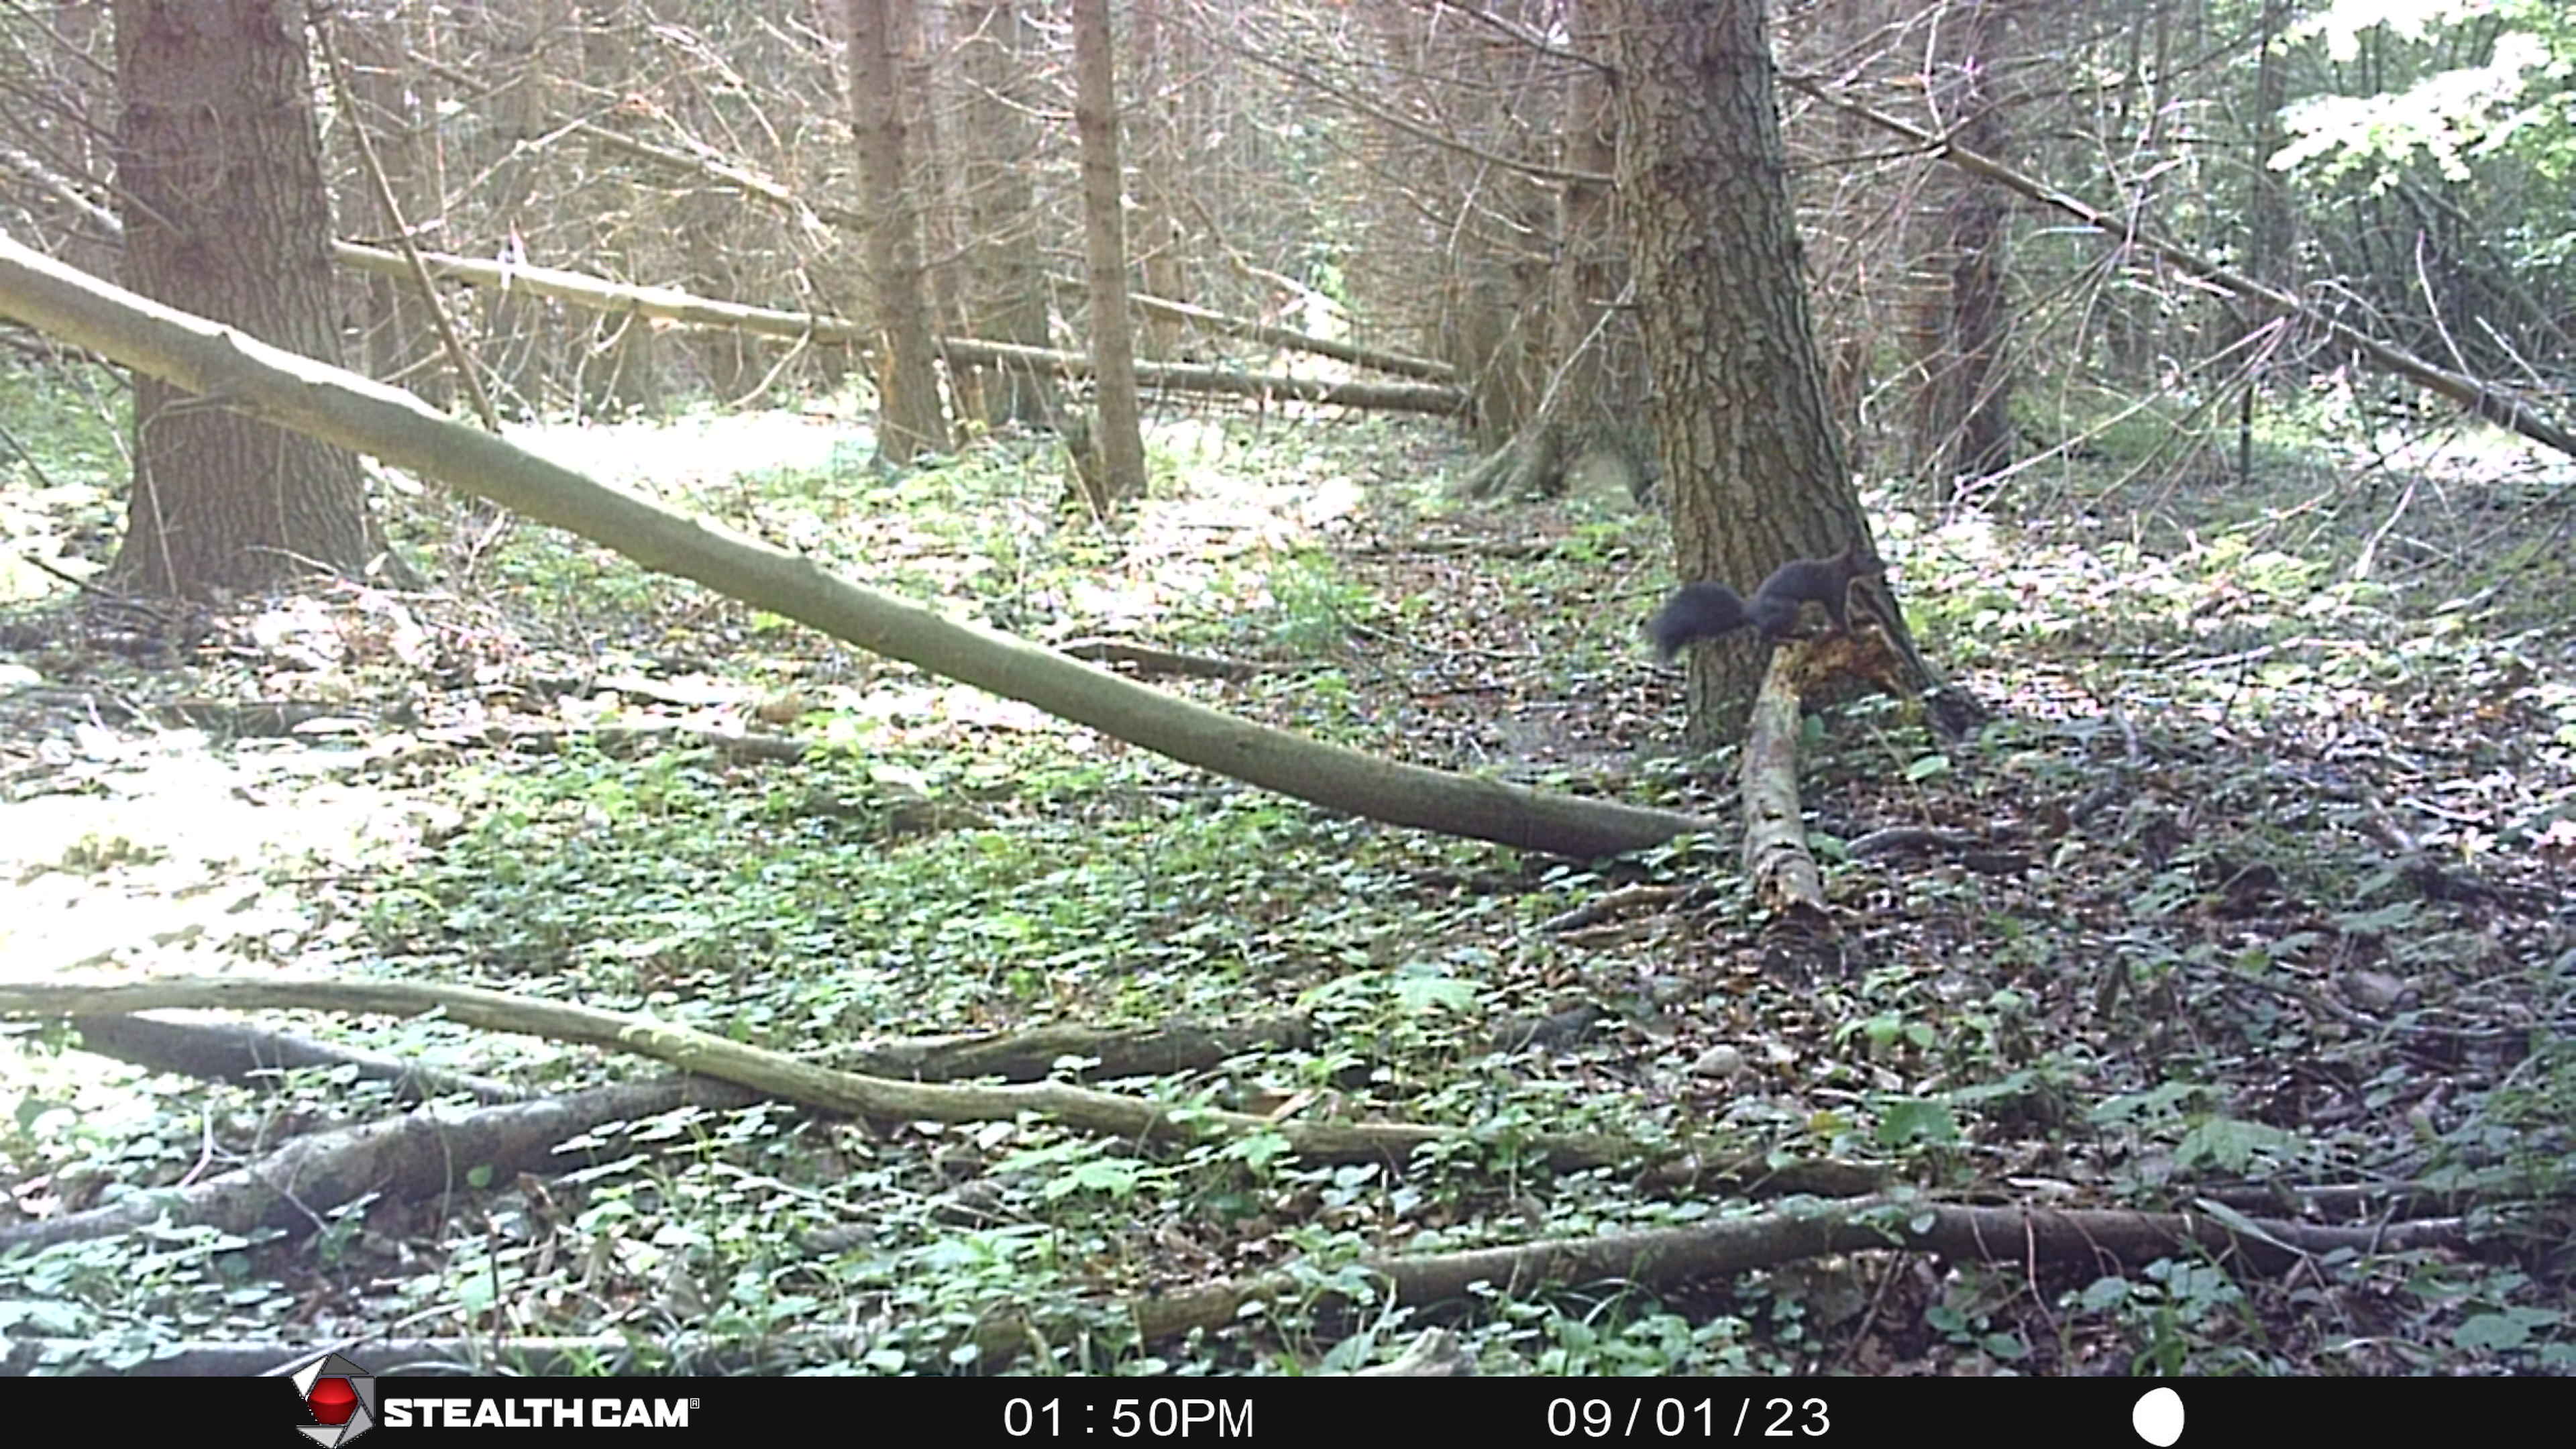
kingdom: Animalia
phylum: Chordata
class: Mammalia
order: Rodentia
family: Sciuridae
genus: Sciurus
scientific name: Sciurus vulgaris
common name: Egern
